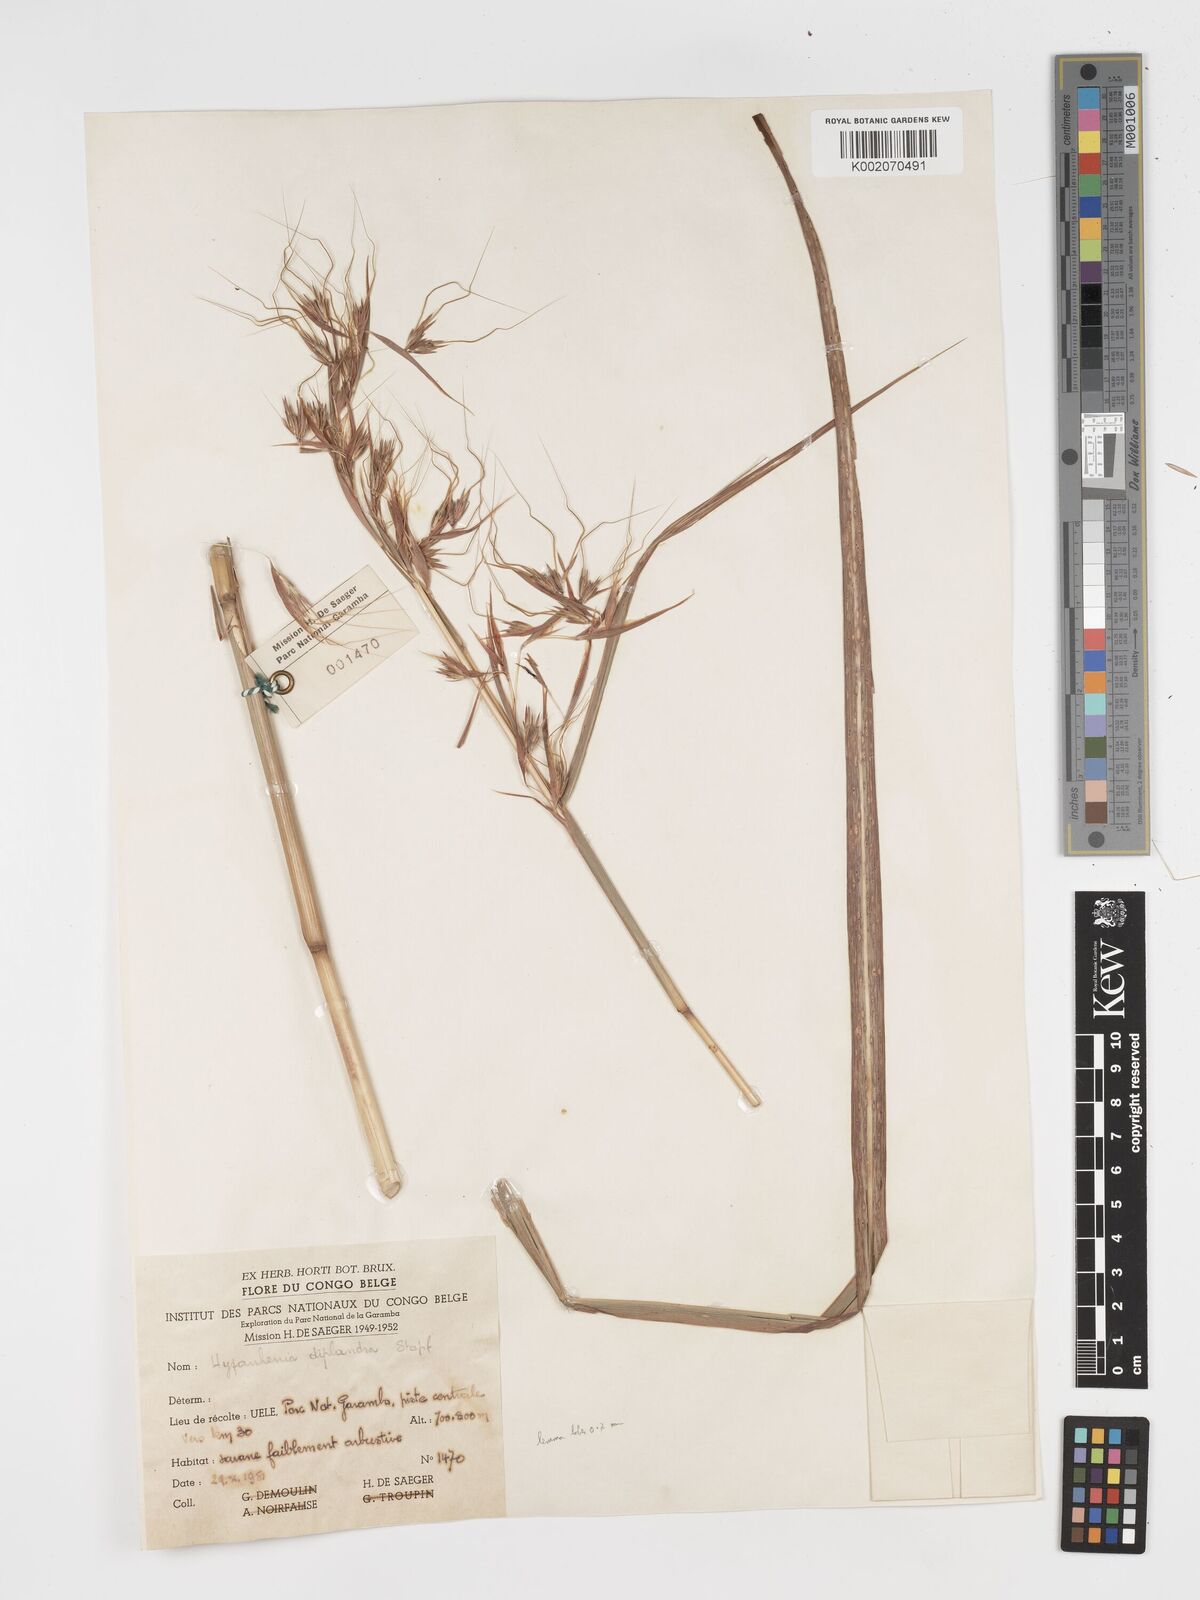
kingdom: Plantae
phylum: Tracheophyta
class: Liliopsida
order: Poales
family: Poaceae
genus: Hyparrhenia
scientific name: Hyparrhenia diplandra
